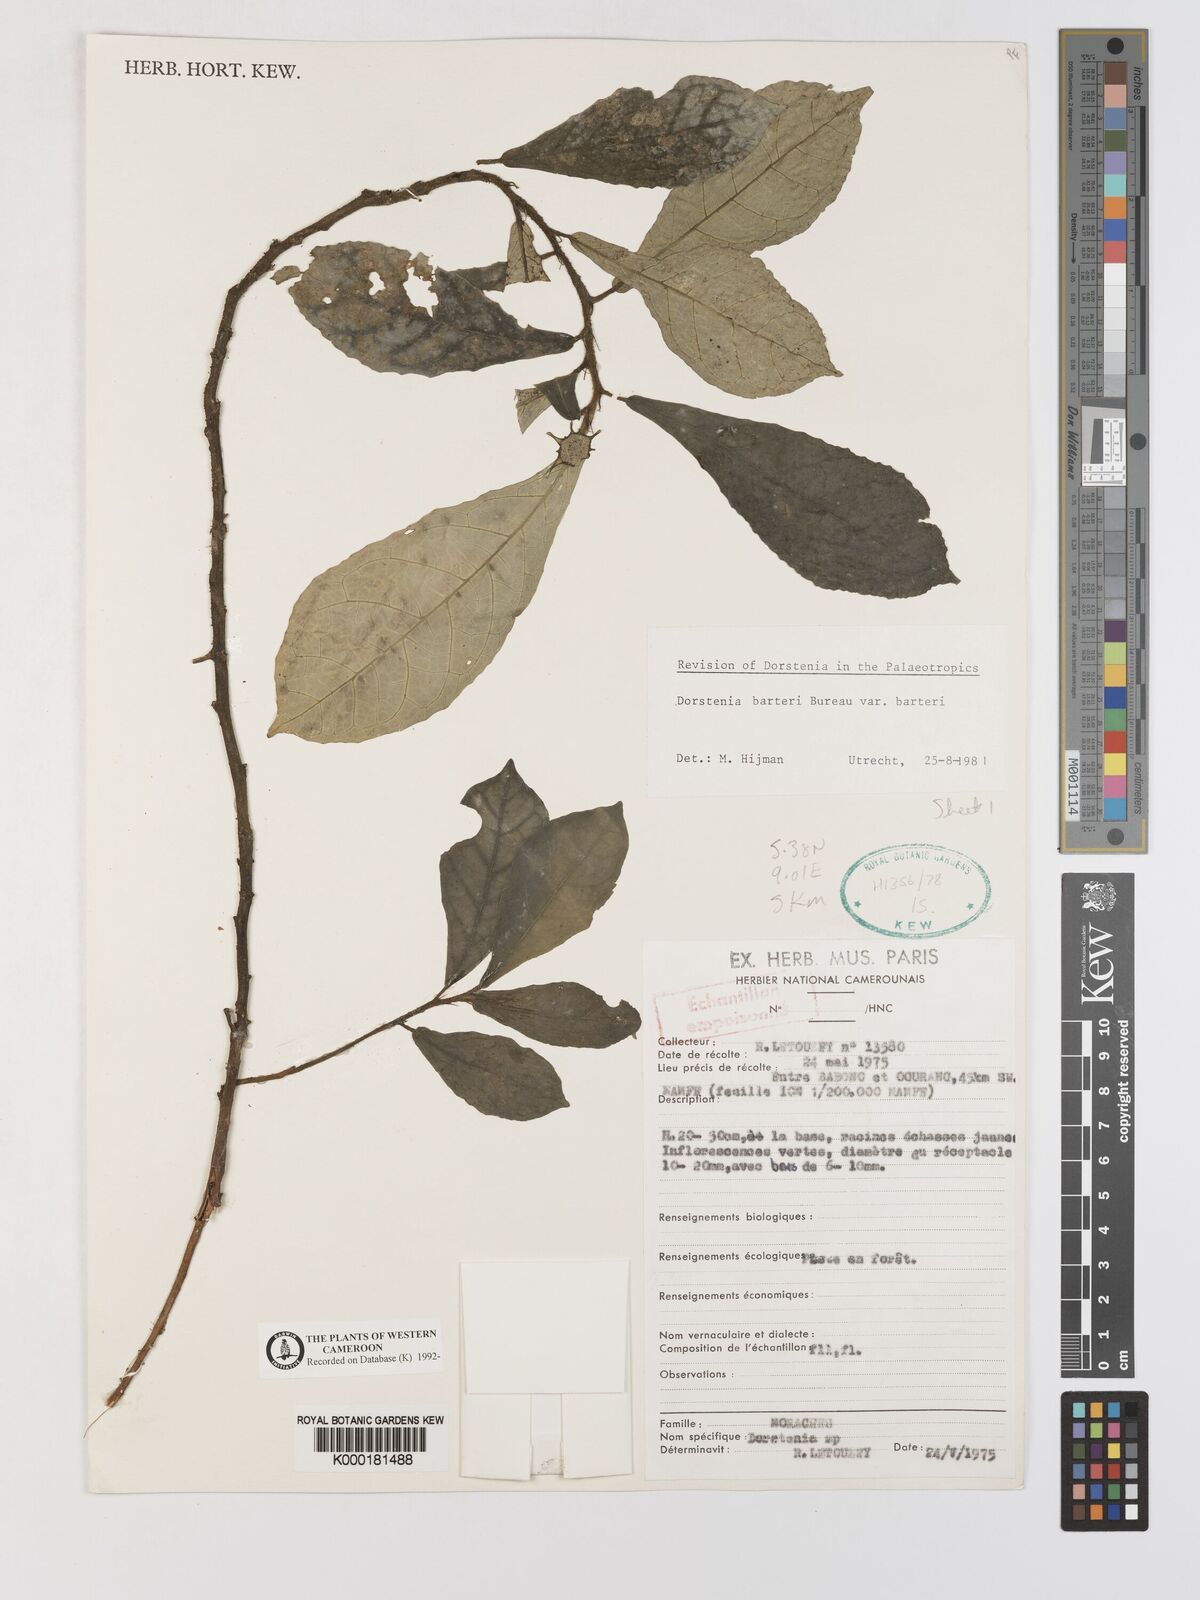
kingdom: Plantae
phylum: Tracheophyta
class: Magnoliopsida
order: Rosales
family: Moraceae
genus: Dorstenia
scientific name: Dorstenia barteri
